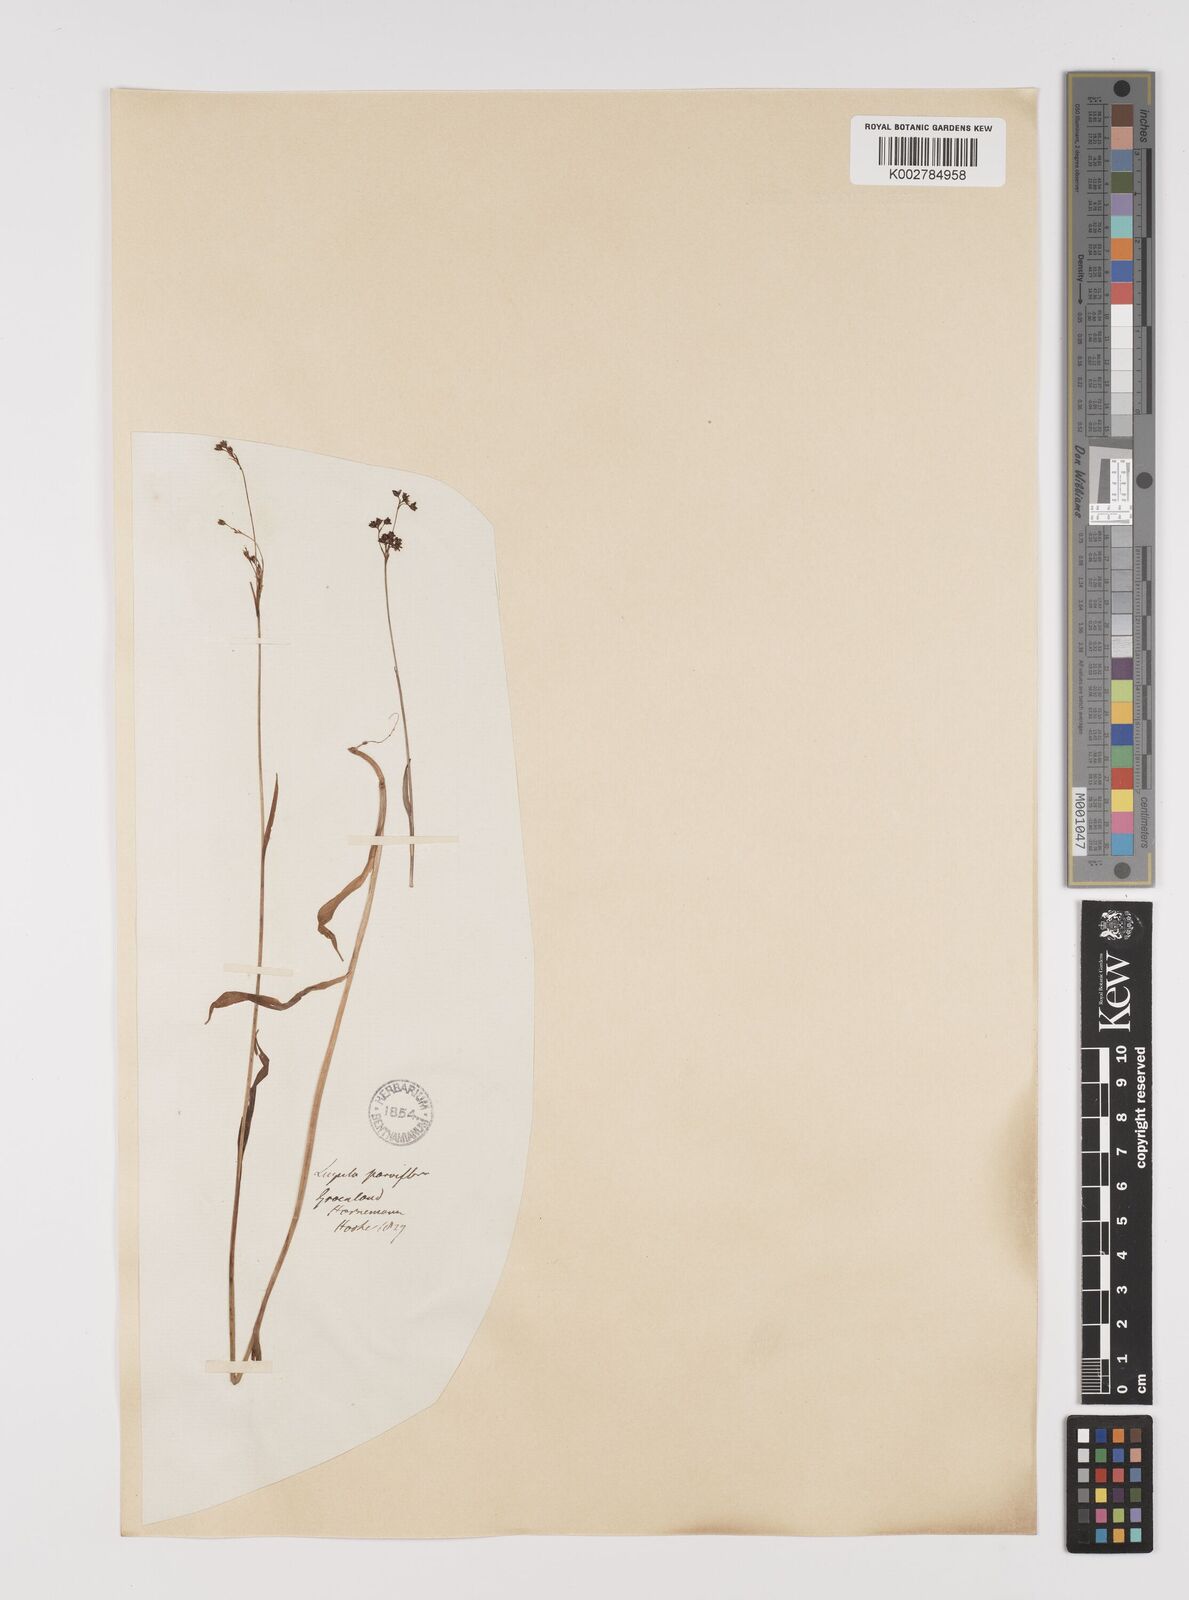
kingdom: Plantae
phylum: Tracheophyta
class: Liliopsida
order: Poales
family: Juncaceae
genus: Luzula
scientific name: Luzula parviflora
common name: Millet woodrush
